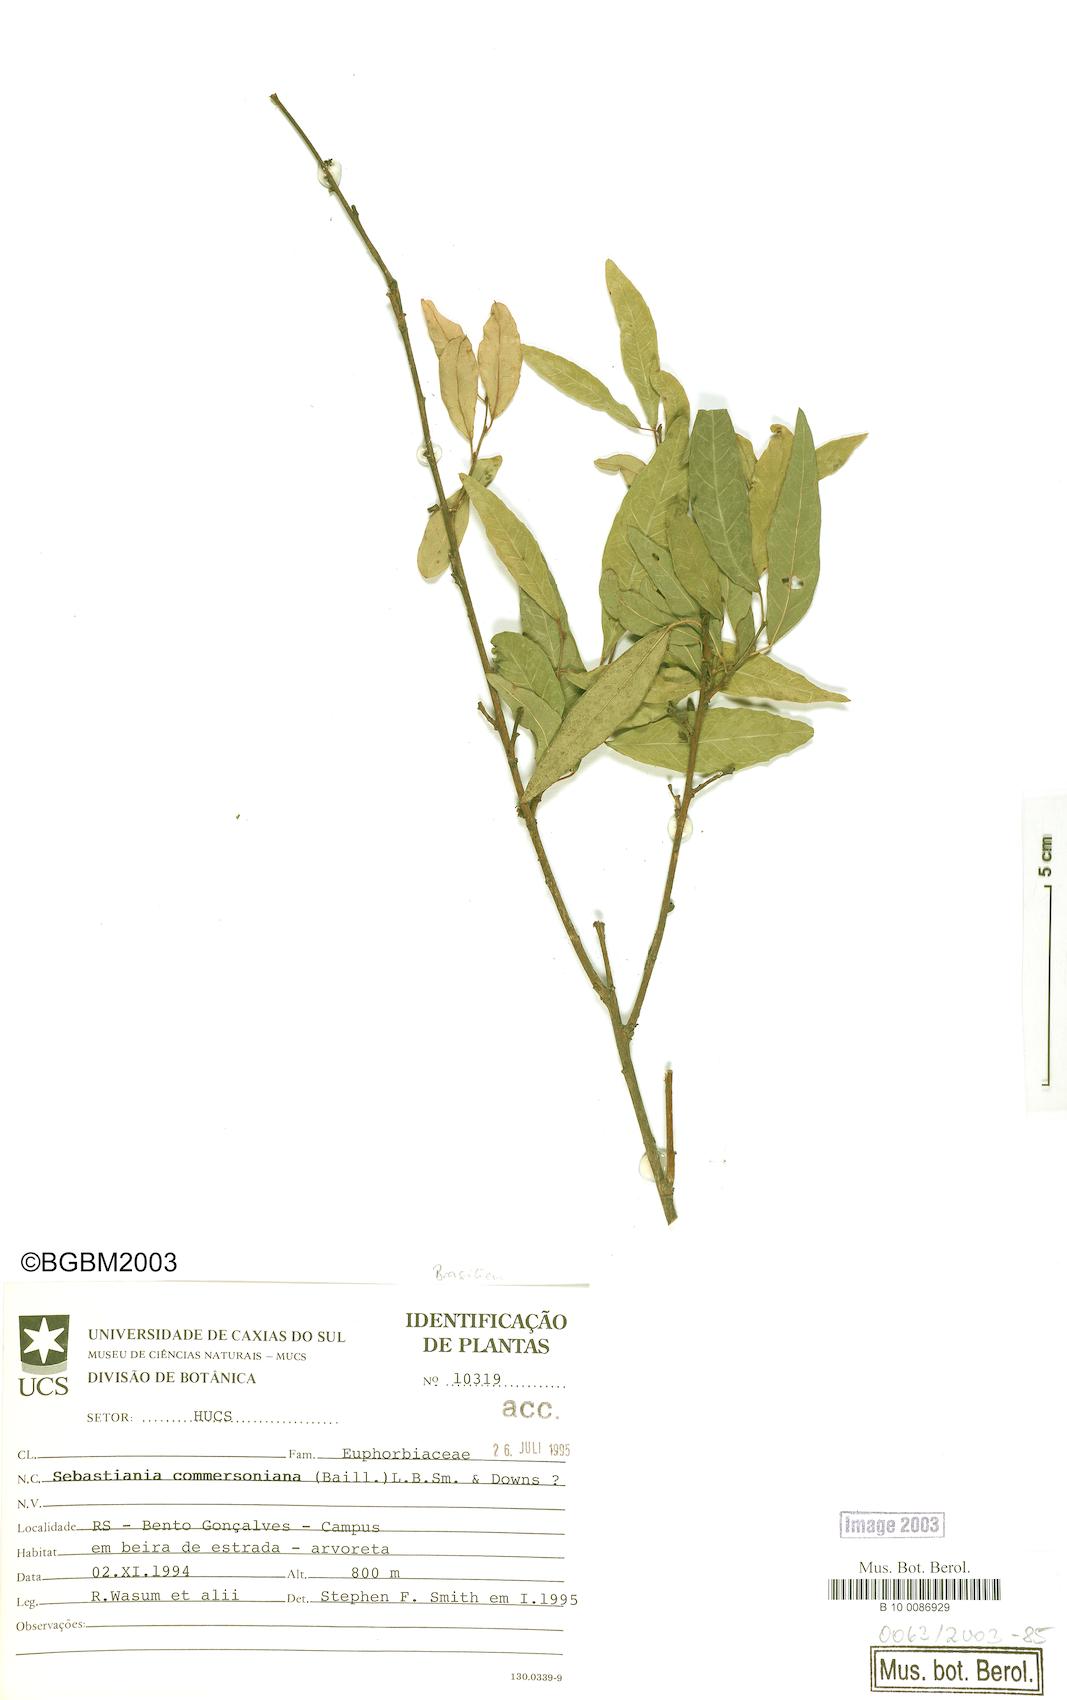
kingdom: Plantae
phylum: Tracheophyta
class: Magnoliopsida
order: Malpighiales
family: Euphorbiaceae
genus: Sebastiania
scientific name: Sebastiania klotzschiana
